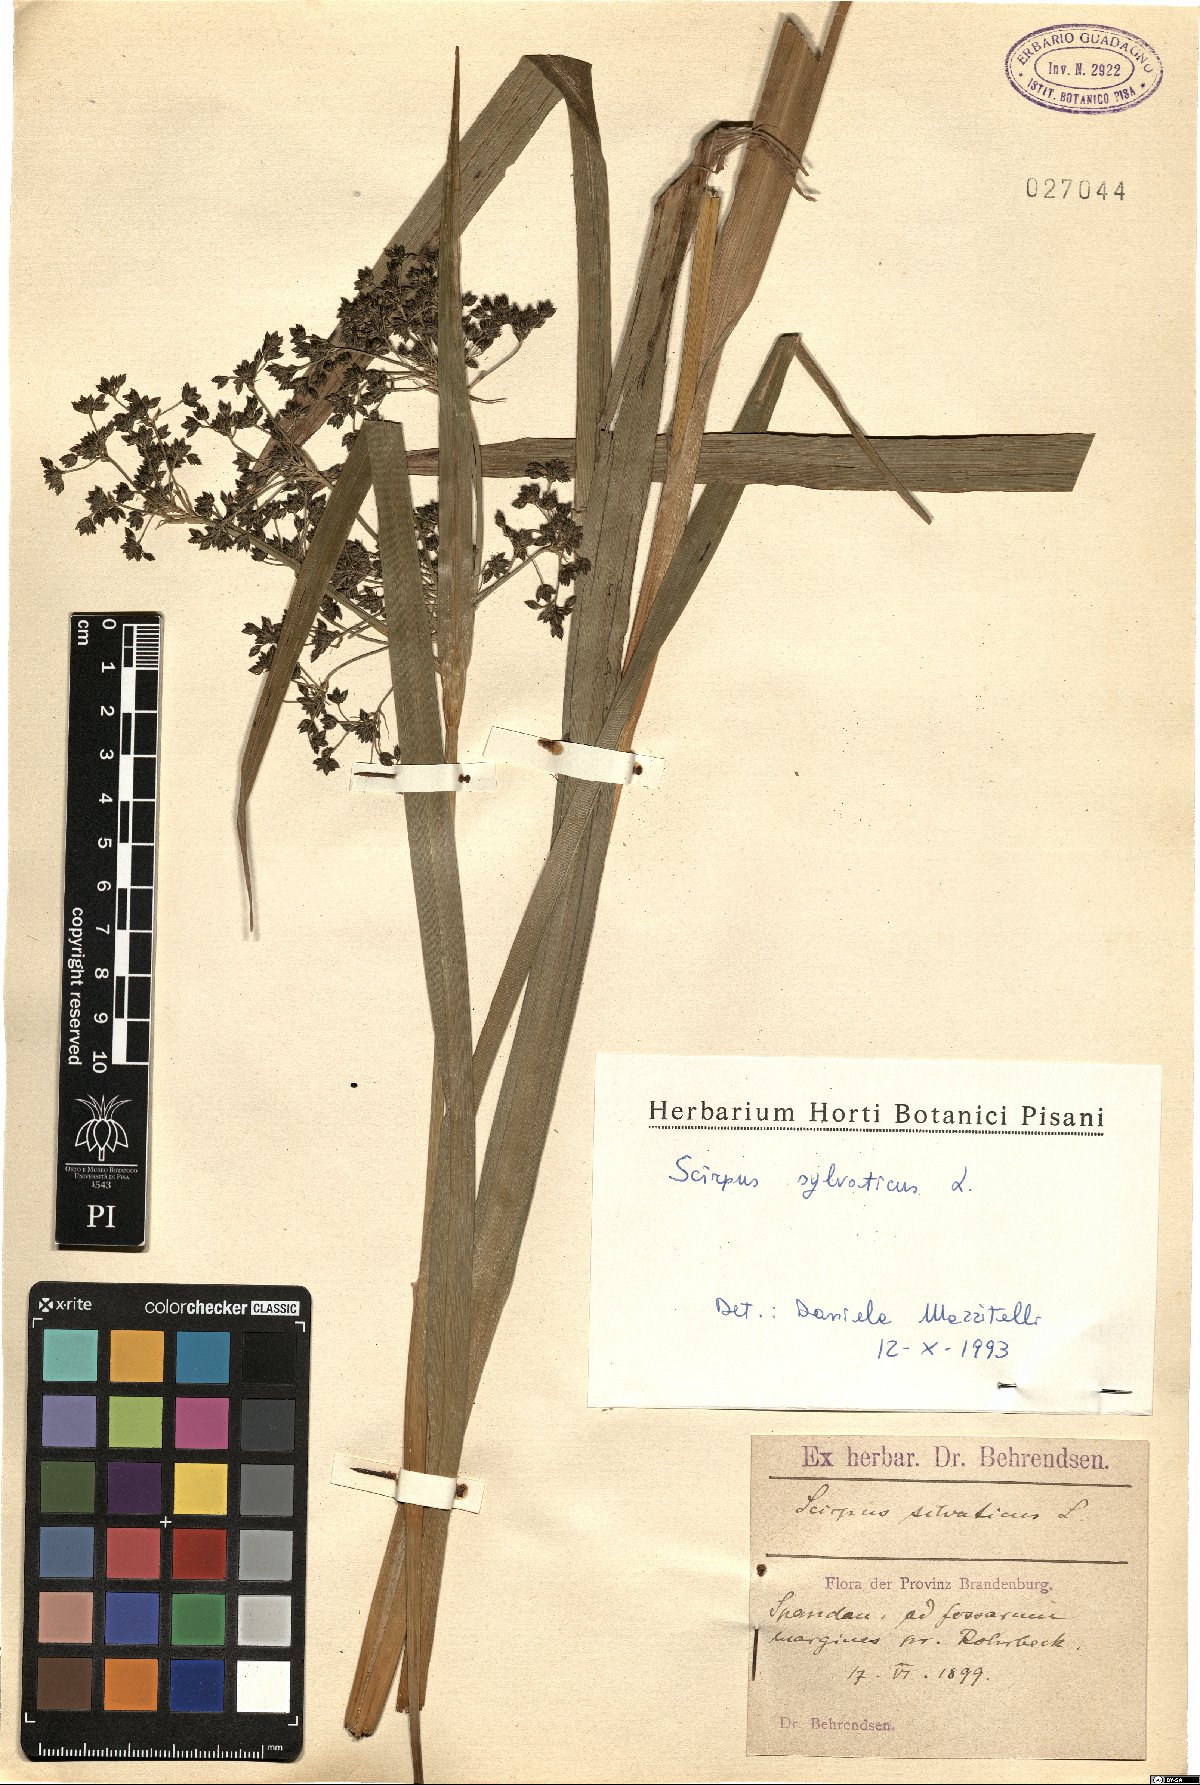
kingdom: Plantae
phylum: Tracheophyta
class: Liliopsida
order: Poales
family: Cyperaceae
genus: Scirpus
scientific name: Scirpus sylvaticus
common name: Wood club-rush
